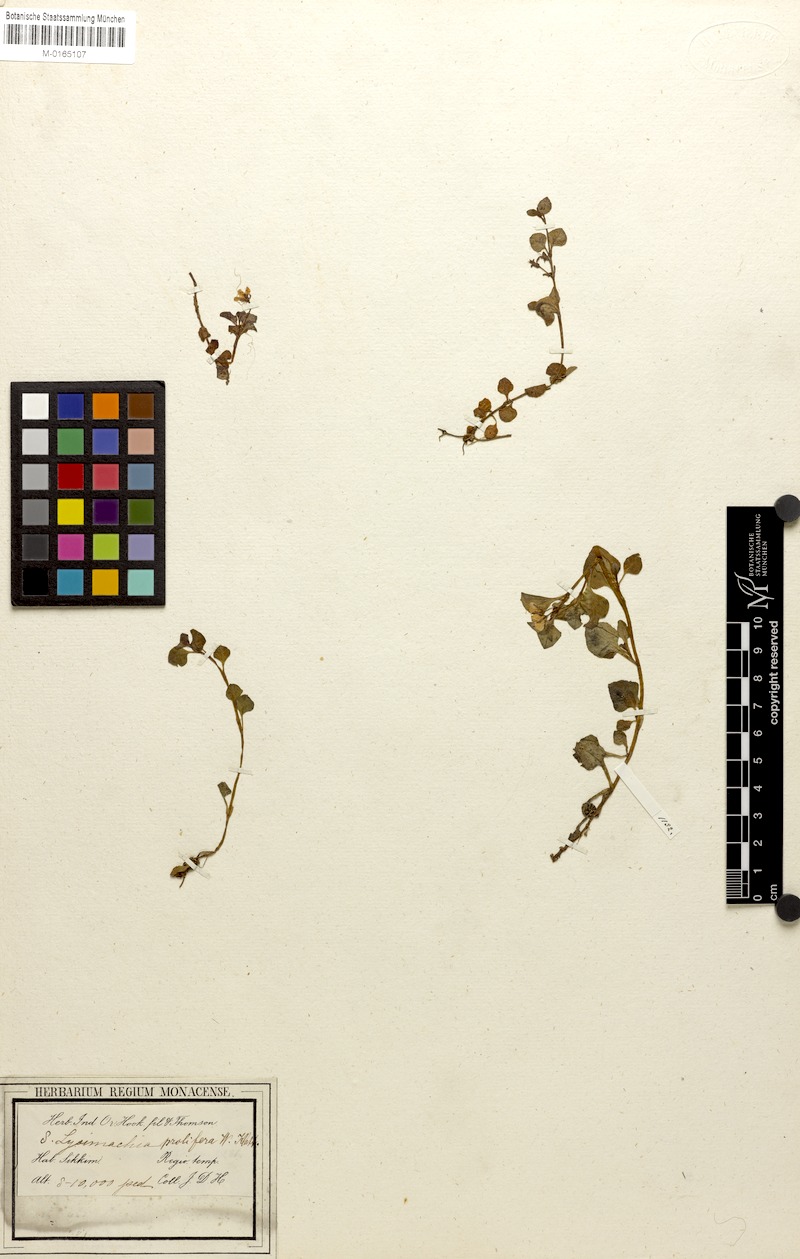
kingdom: Plantae
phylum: Tracheophyta
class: Magnoliopsida
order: Ericales
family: Primulaceae
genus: Lysimachia
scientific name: Lysimachia prolifera
